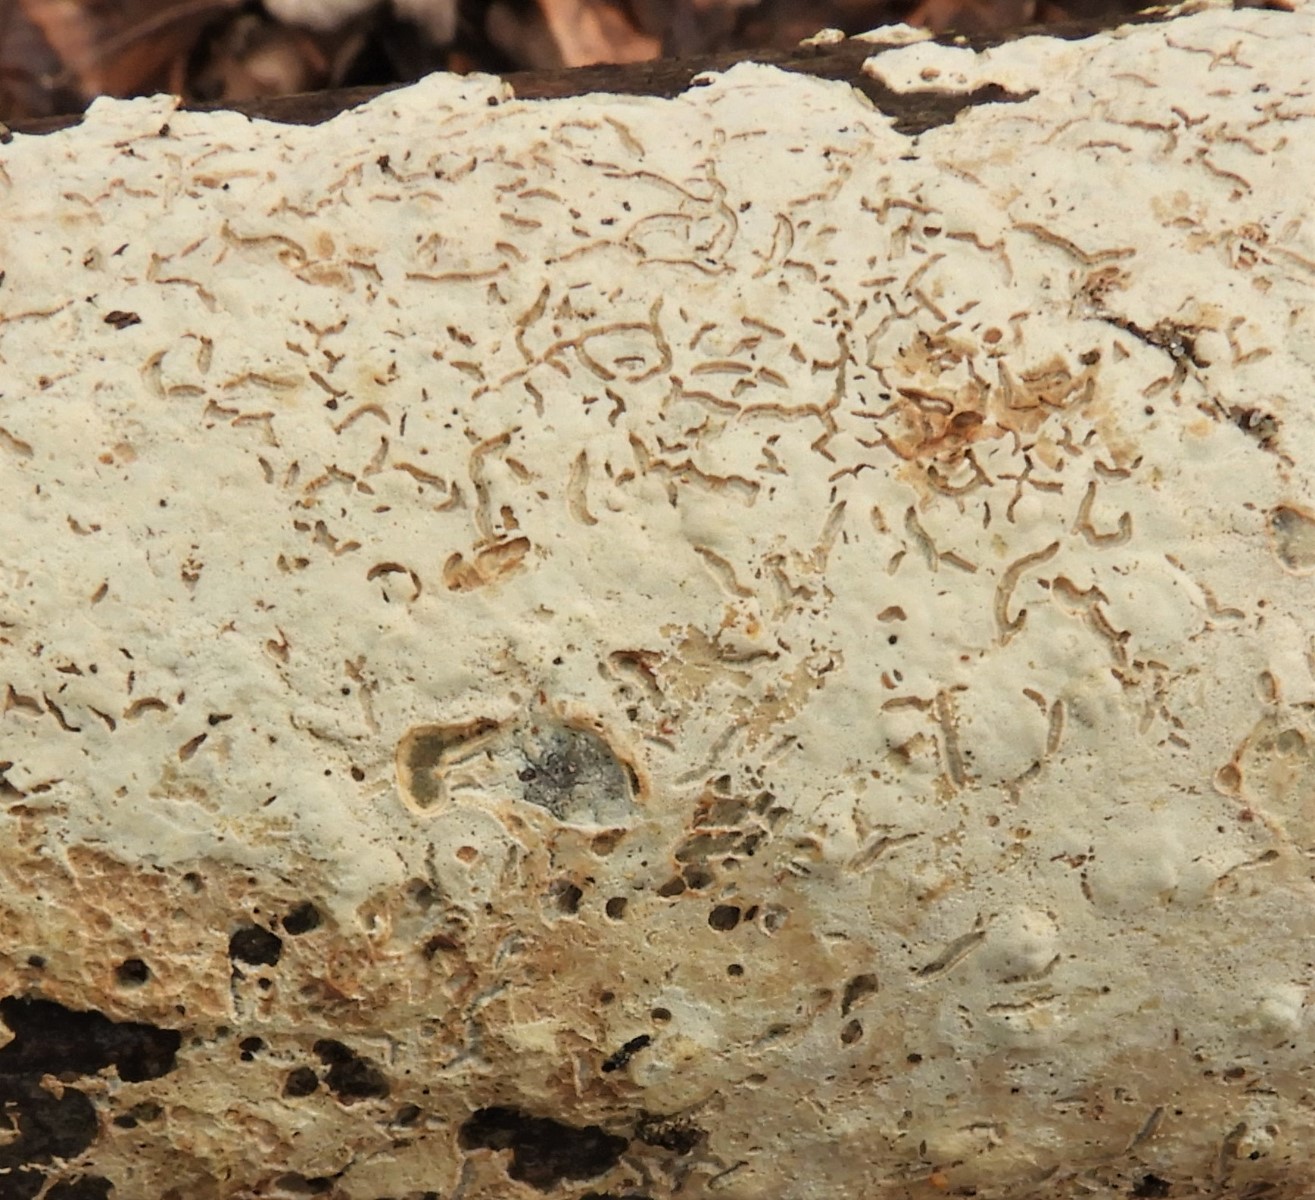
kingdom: Fungi
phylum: Basidiomycota
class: Agaricomycetes
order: Agaricales
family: Physalacriaceae
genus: Cylindrobasidium
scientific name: Cylindrobasidium evolvens
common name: sprækkehinde
